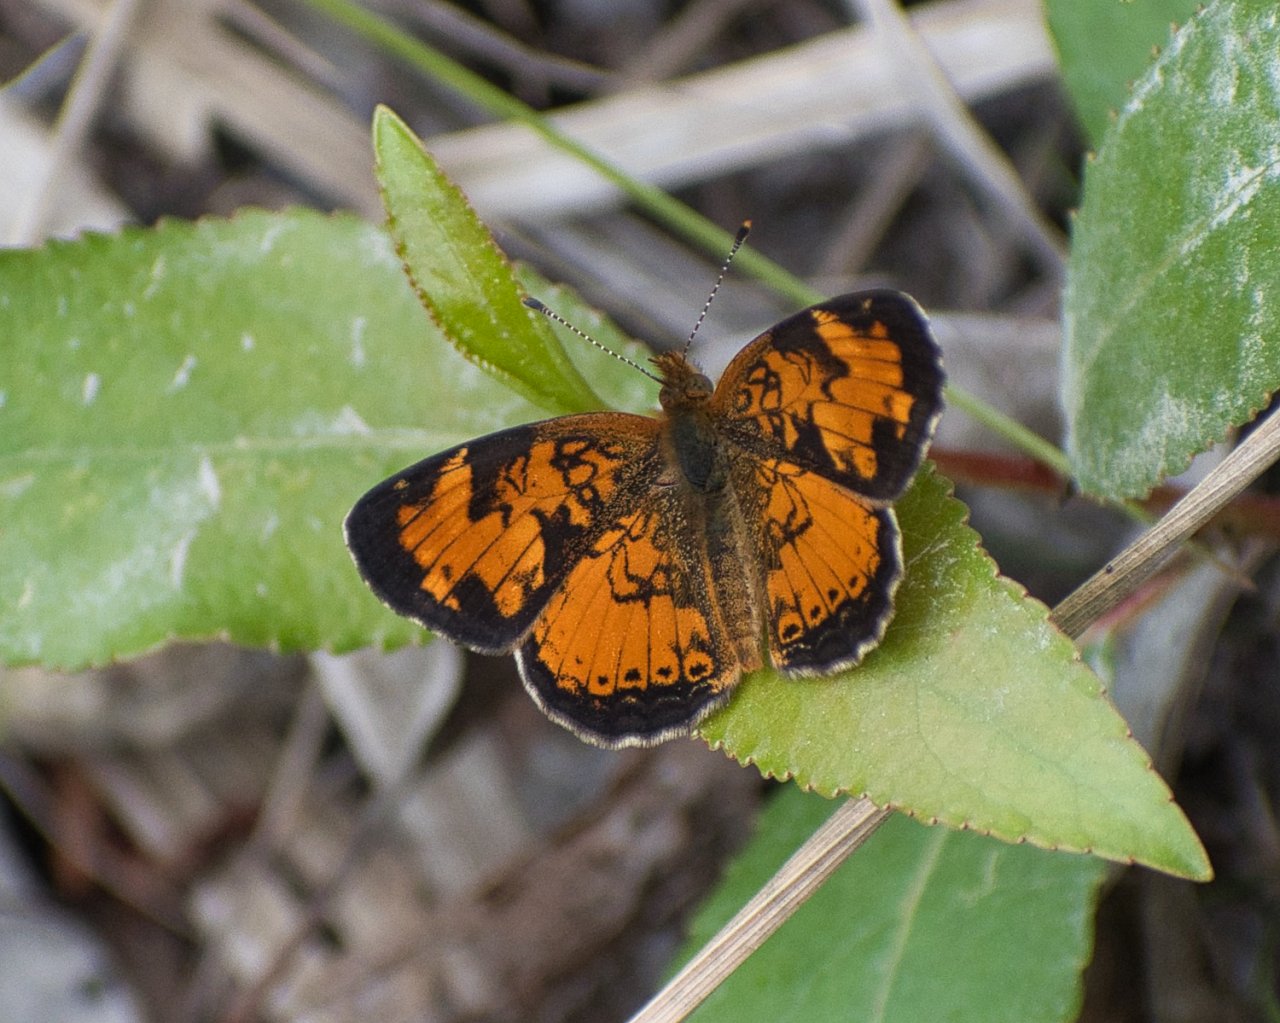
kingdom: Animalia
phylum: Arthropoda
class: Insecta
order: Lepidoptera
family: Nymphalidae
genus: Phyciodes
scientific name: Phyciodes tharos
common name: Northern Crescent
